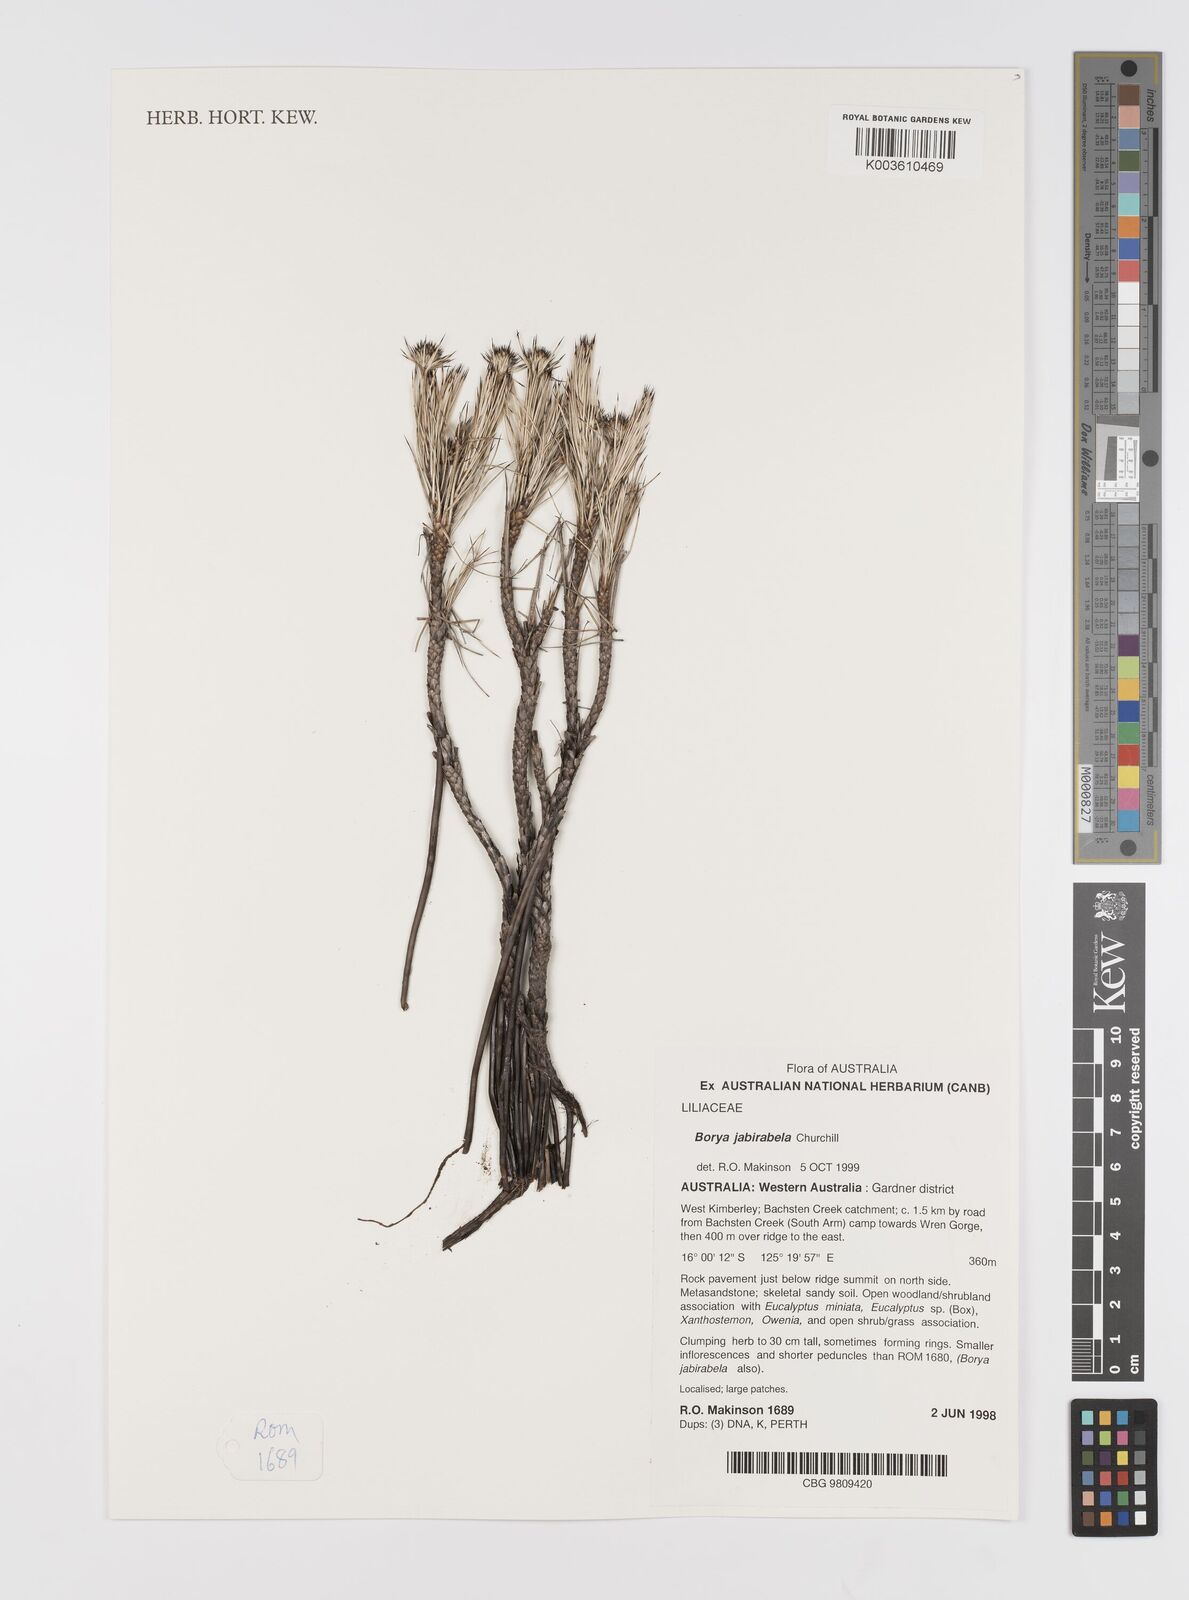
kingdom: Plantae
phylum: Tracheophyta
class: Liliopsida
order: Asparagales
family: Boryaceae
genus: Borya
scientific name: Borya jabirabela
